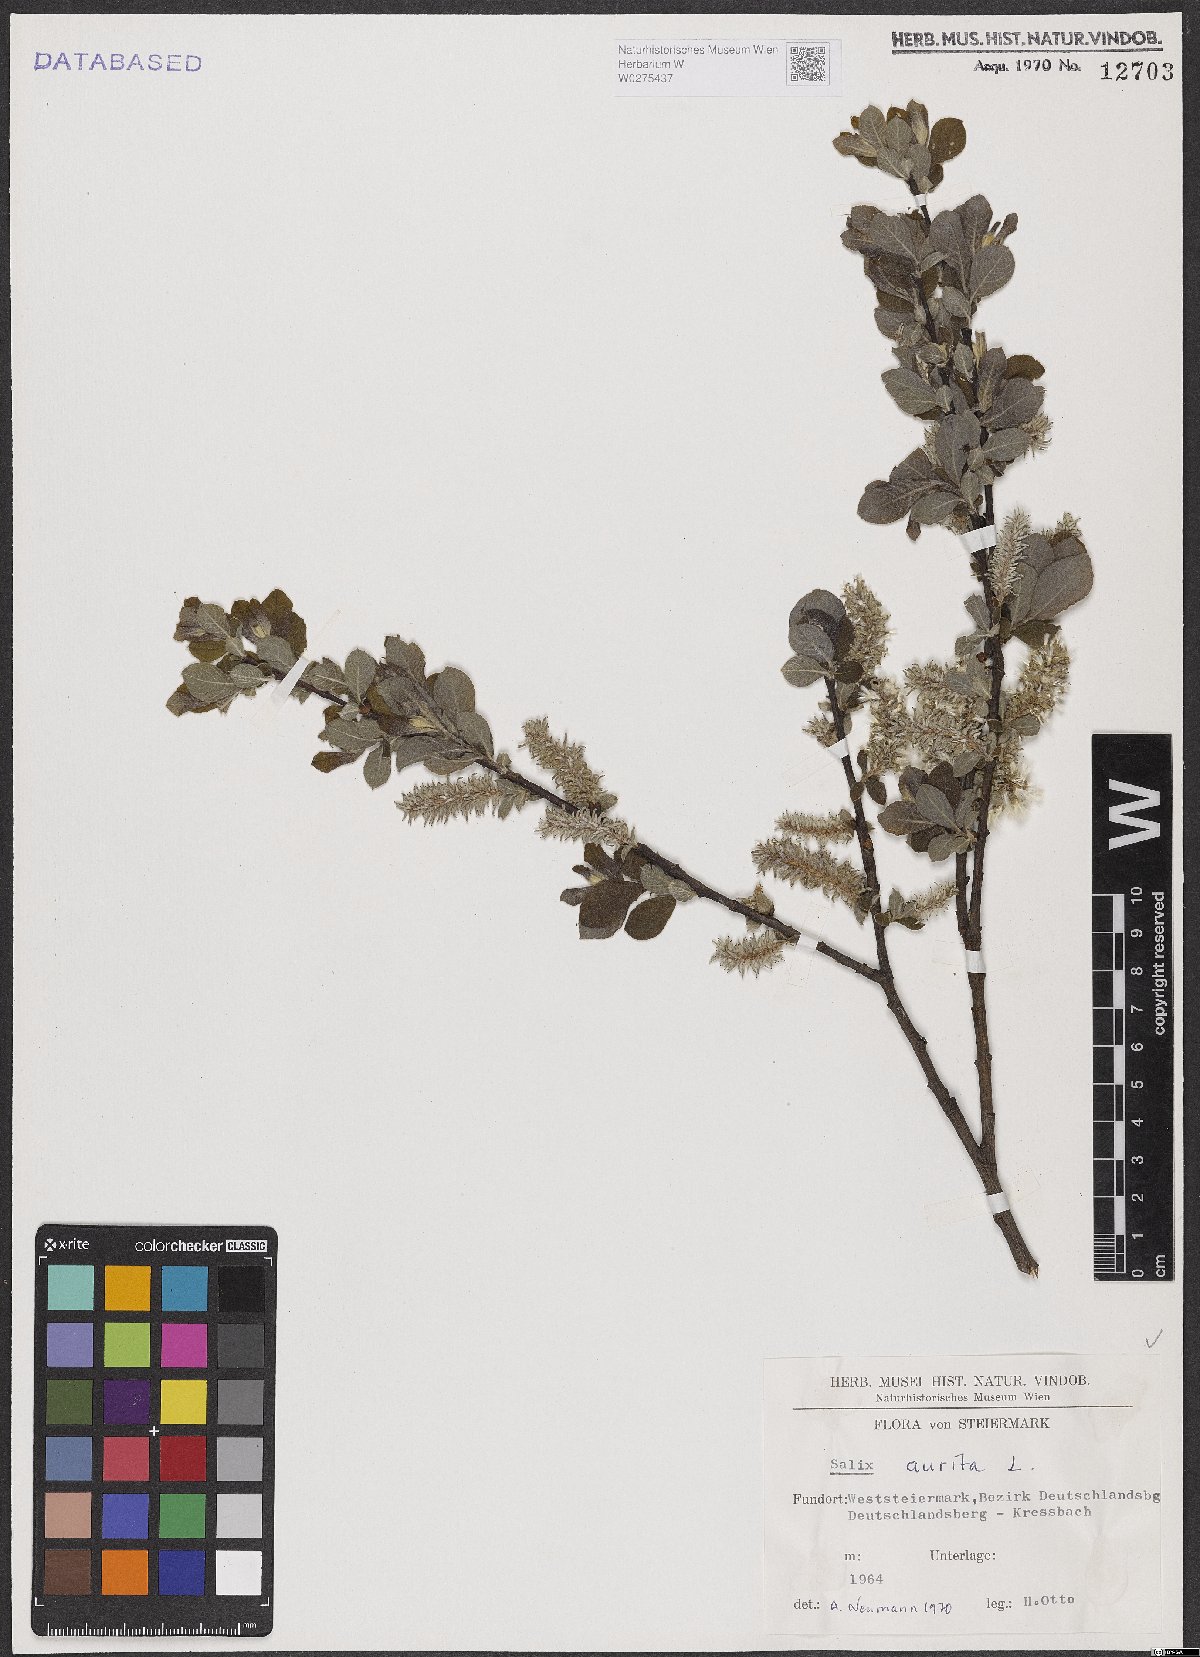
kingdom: Plantae
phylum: Tracheophyta
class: Magnoliopsida
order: Malpighiales
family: Salicaceae
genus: Salix
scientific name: Salix aurita
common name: Eared willow
